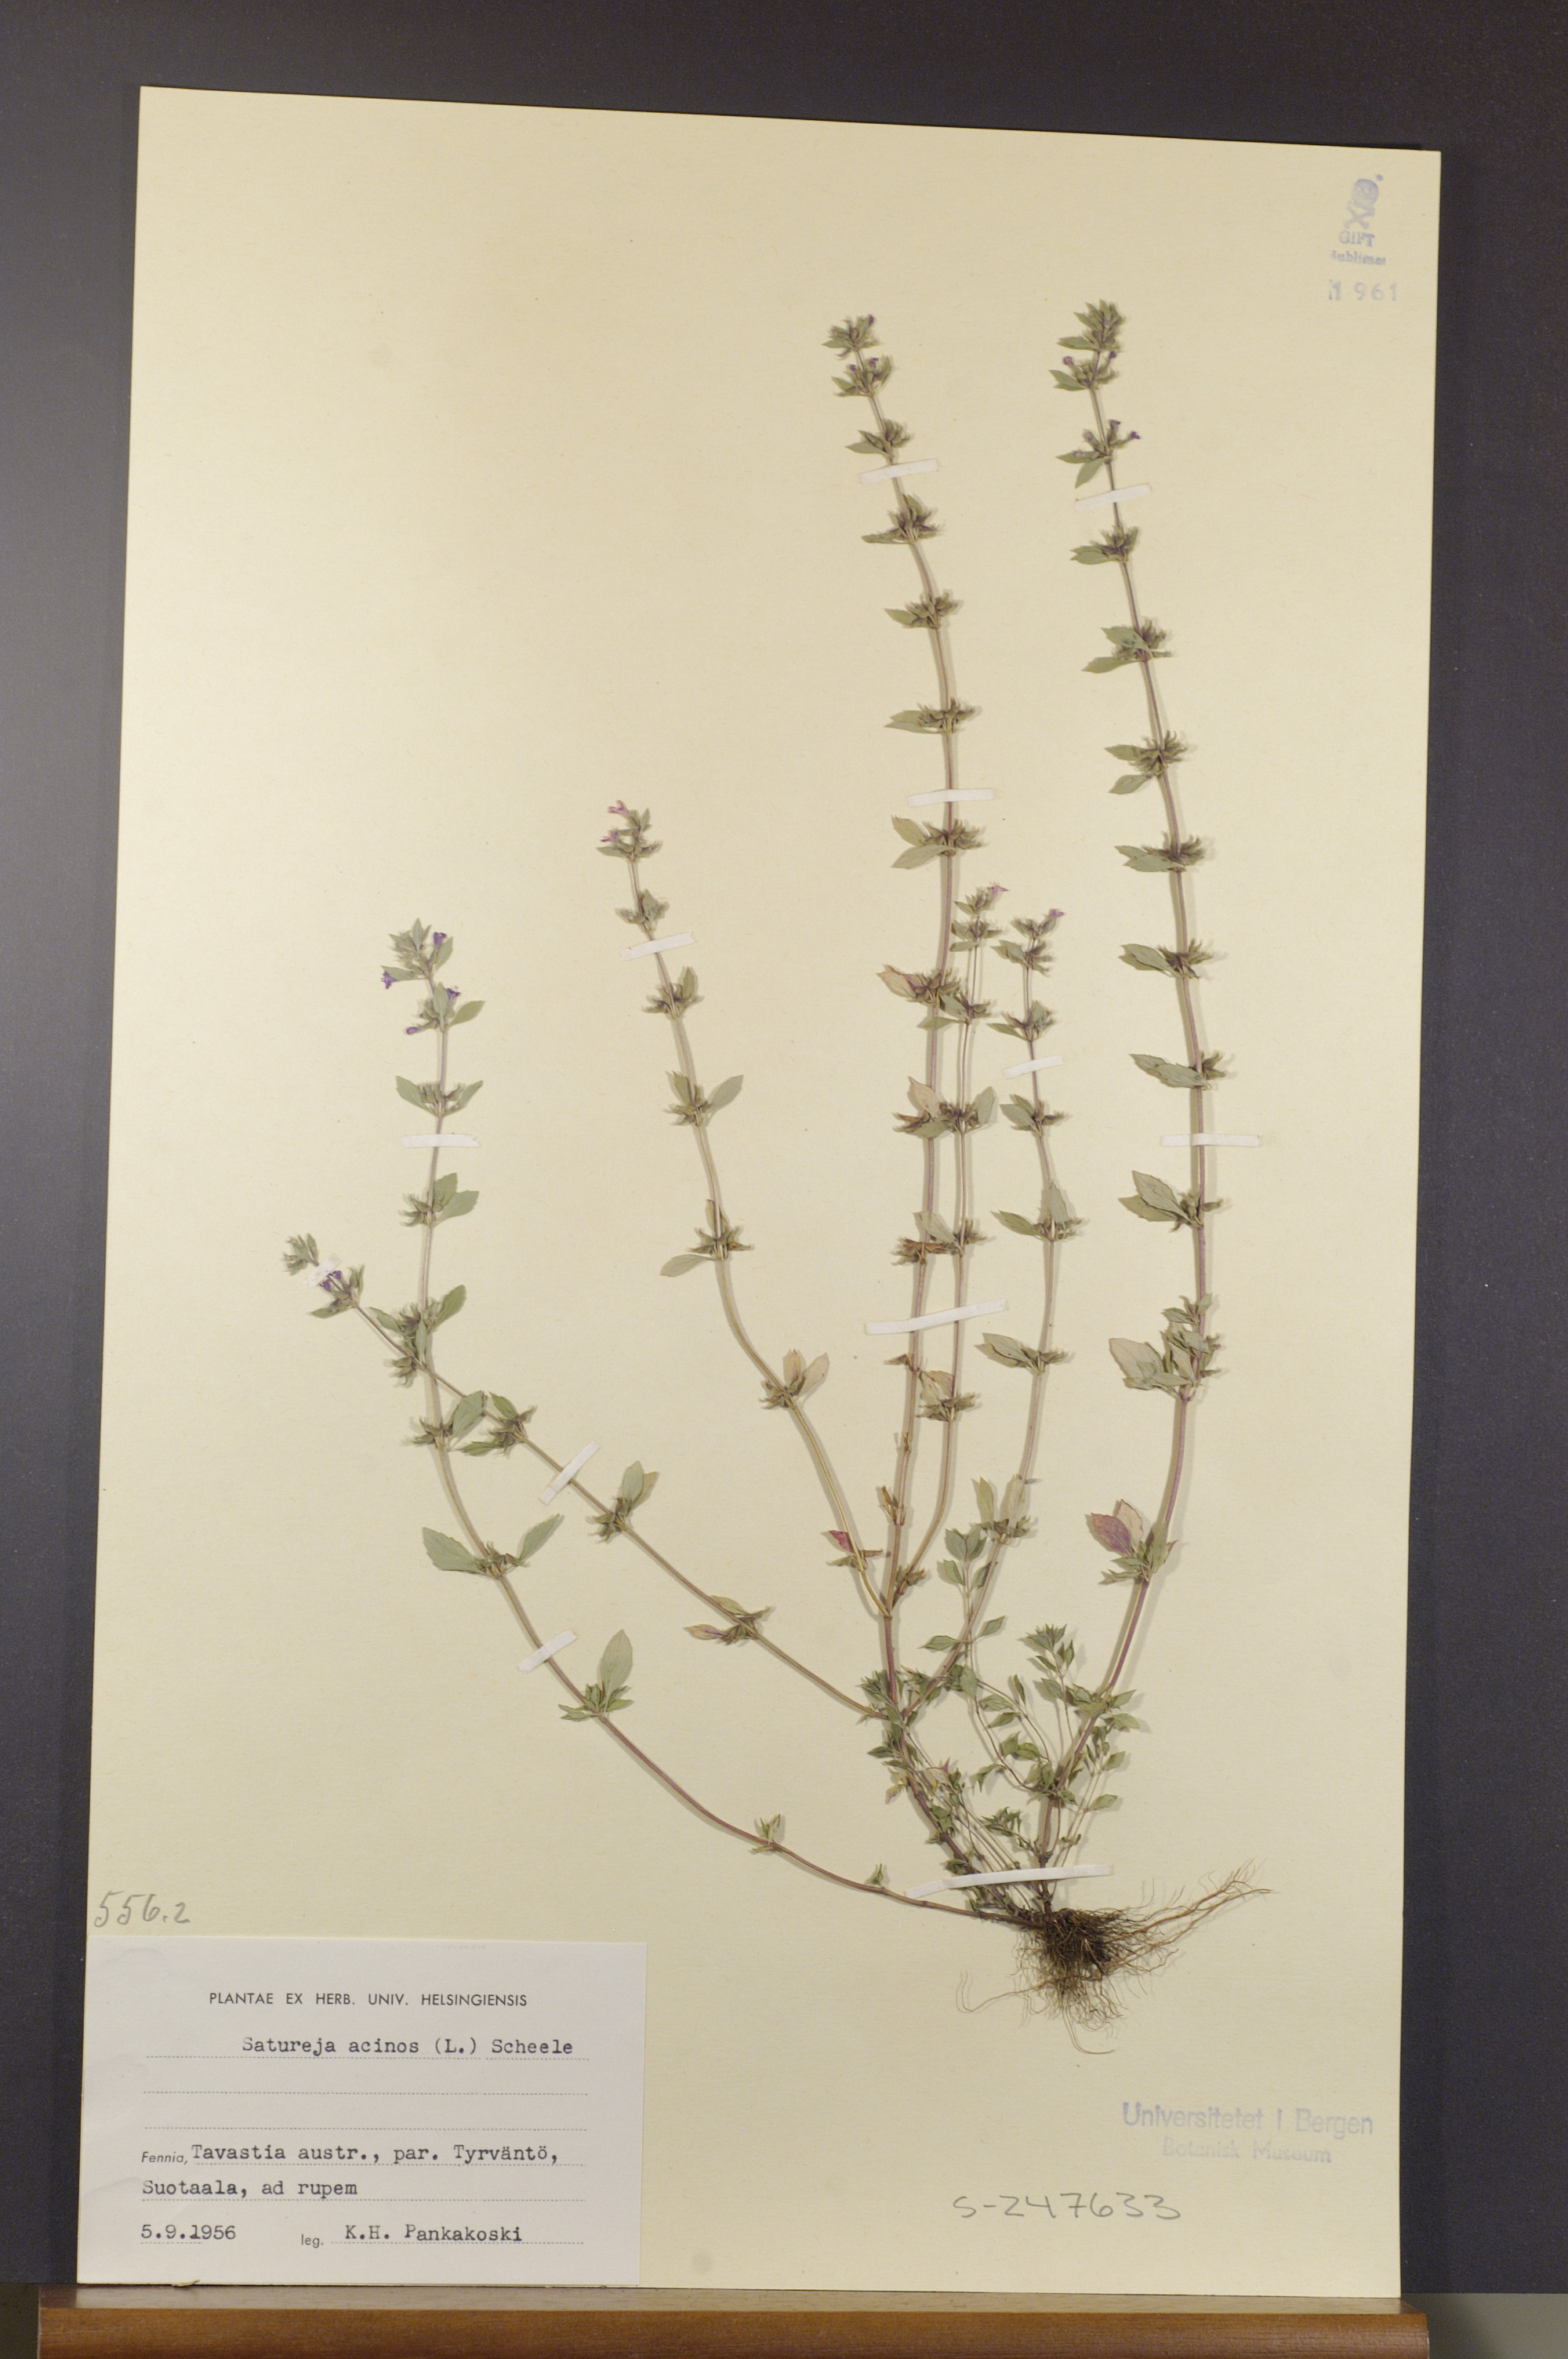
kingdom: Plantae
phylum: Tracheophyta
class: Magnoliopsida
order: Lamiales
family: Lamiaceae
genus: Clinopodium
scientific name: Clinopodium acinos
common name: Basil thyme
